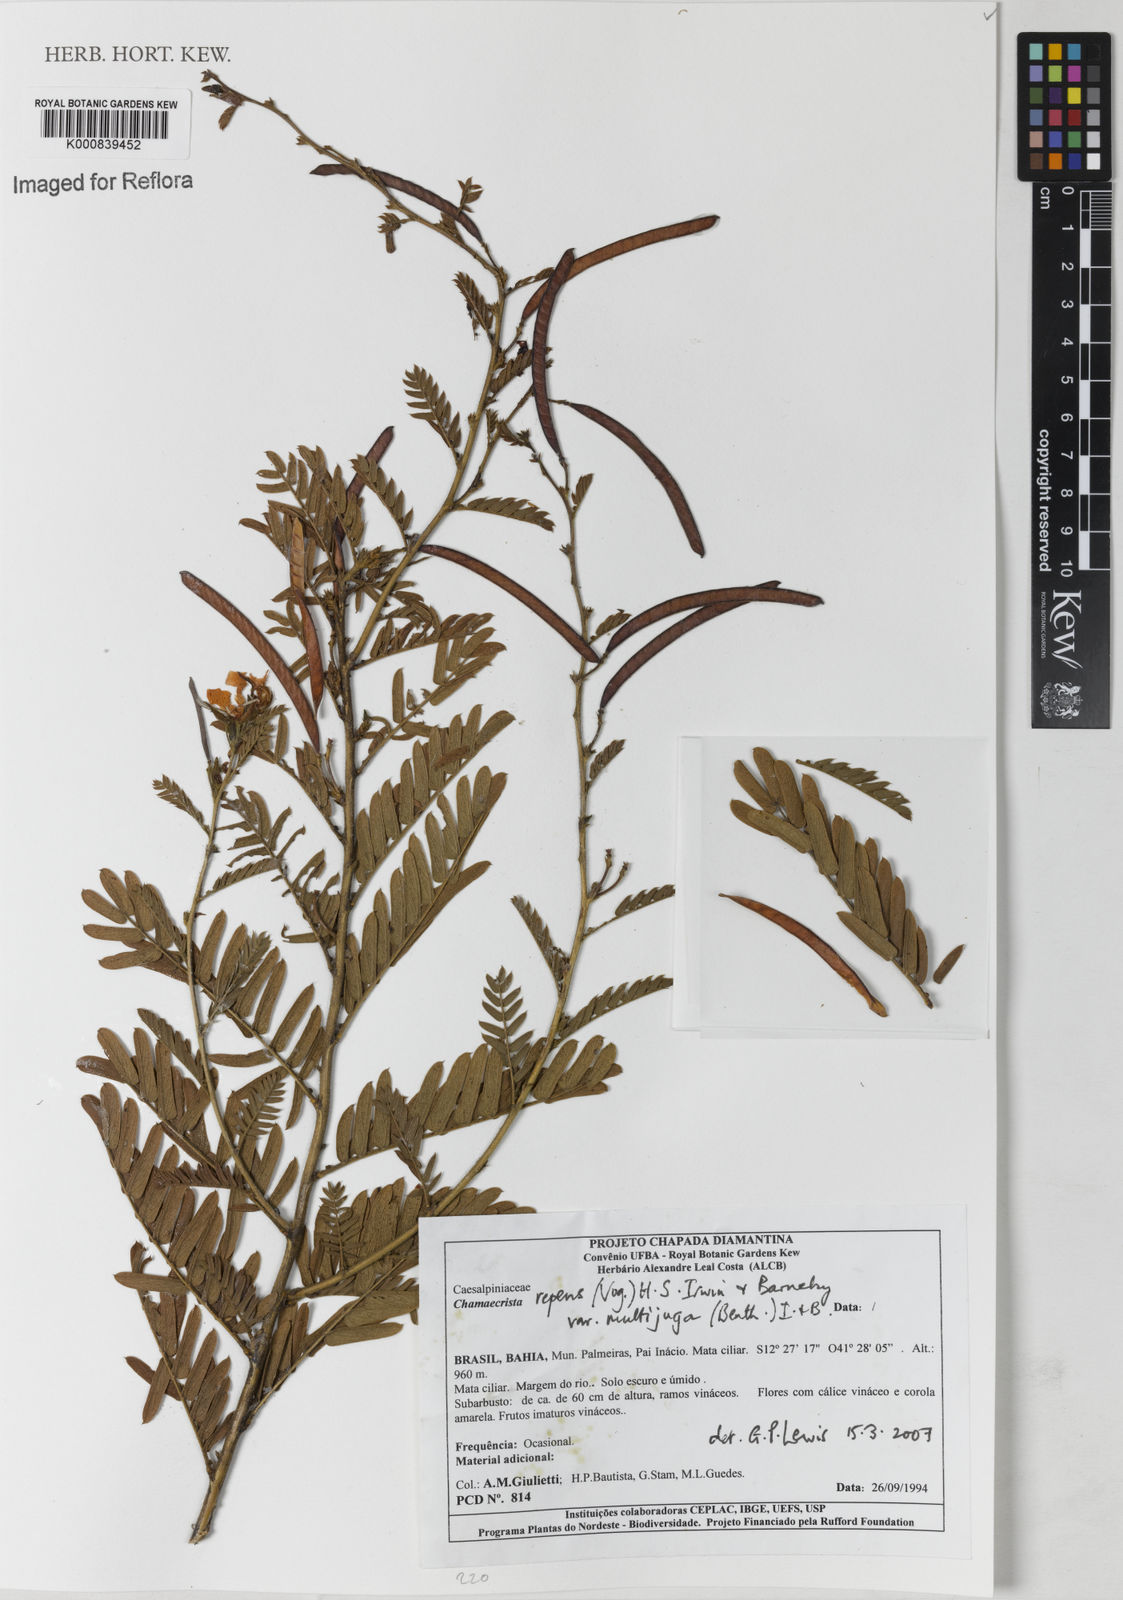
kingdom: Plantae
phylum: Tracheophyta
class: Magnoliopsida
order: Fabales
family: Fabaceae
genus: Chamaecrista
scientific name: Chamaecrista repens
